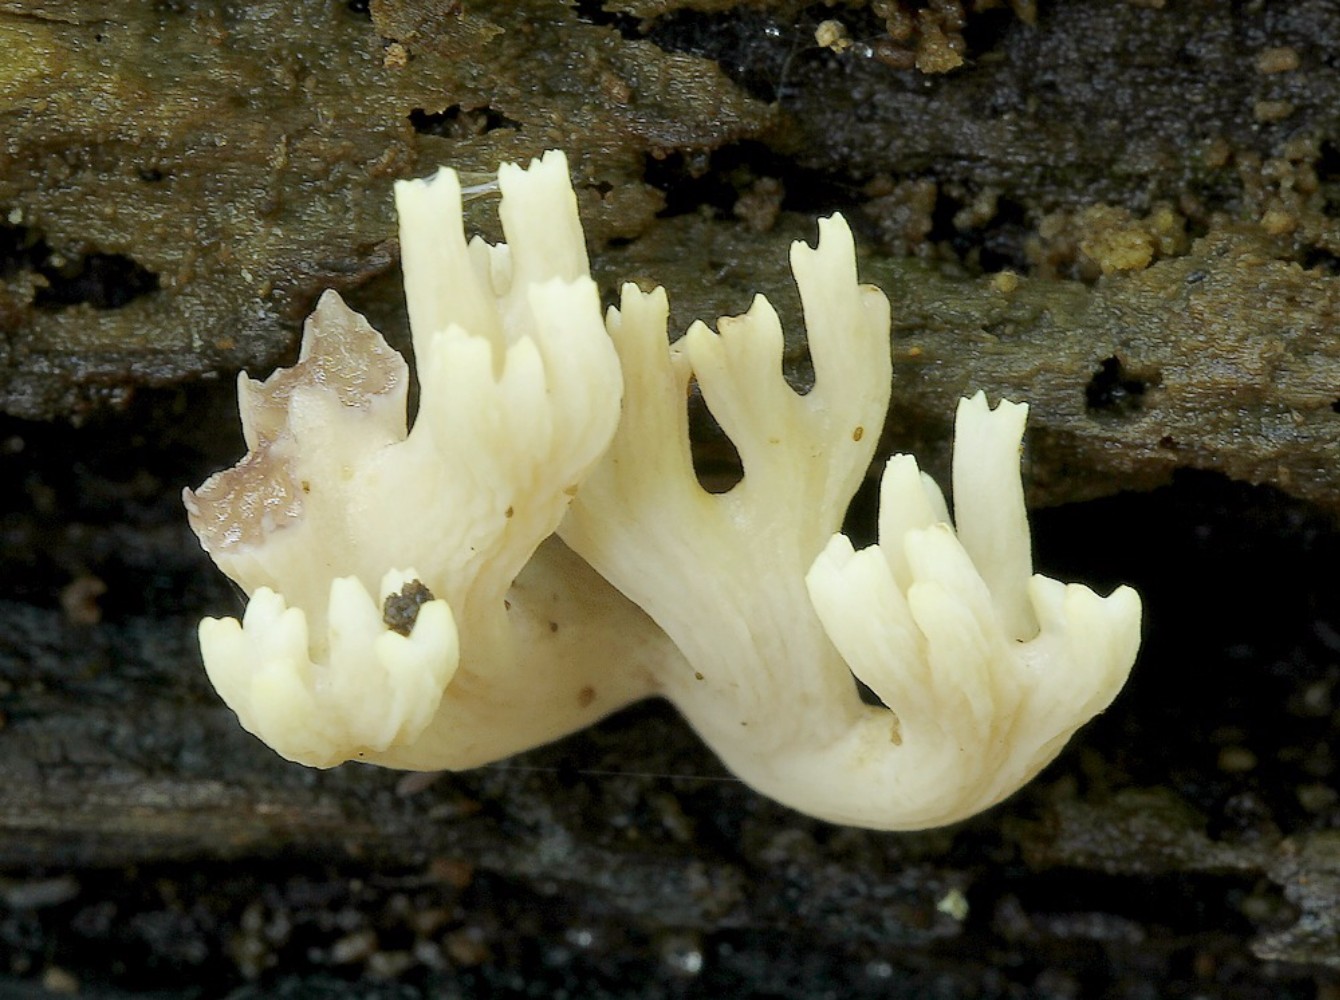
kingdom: Fungi
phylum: Basidiomycota
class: Agaricomycetes
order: Gomphales
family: Gomphaceae
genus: Ramaria
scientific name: Ramaria stricta
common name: rank koralsvamp
